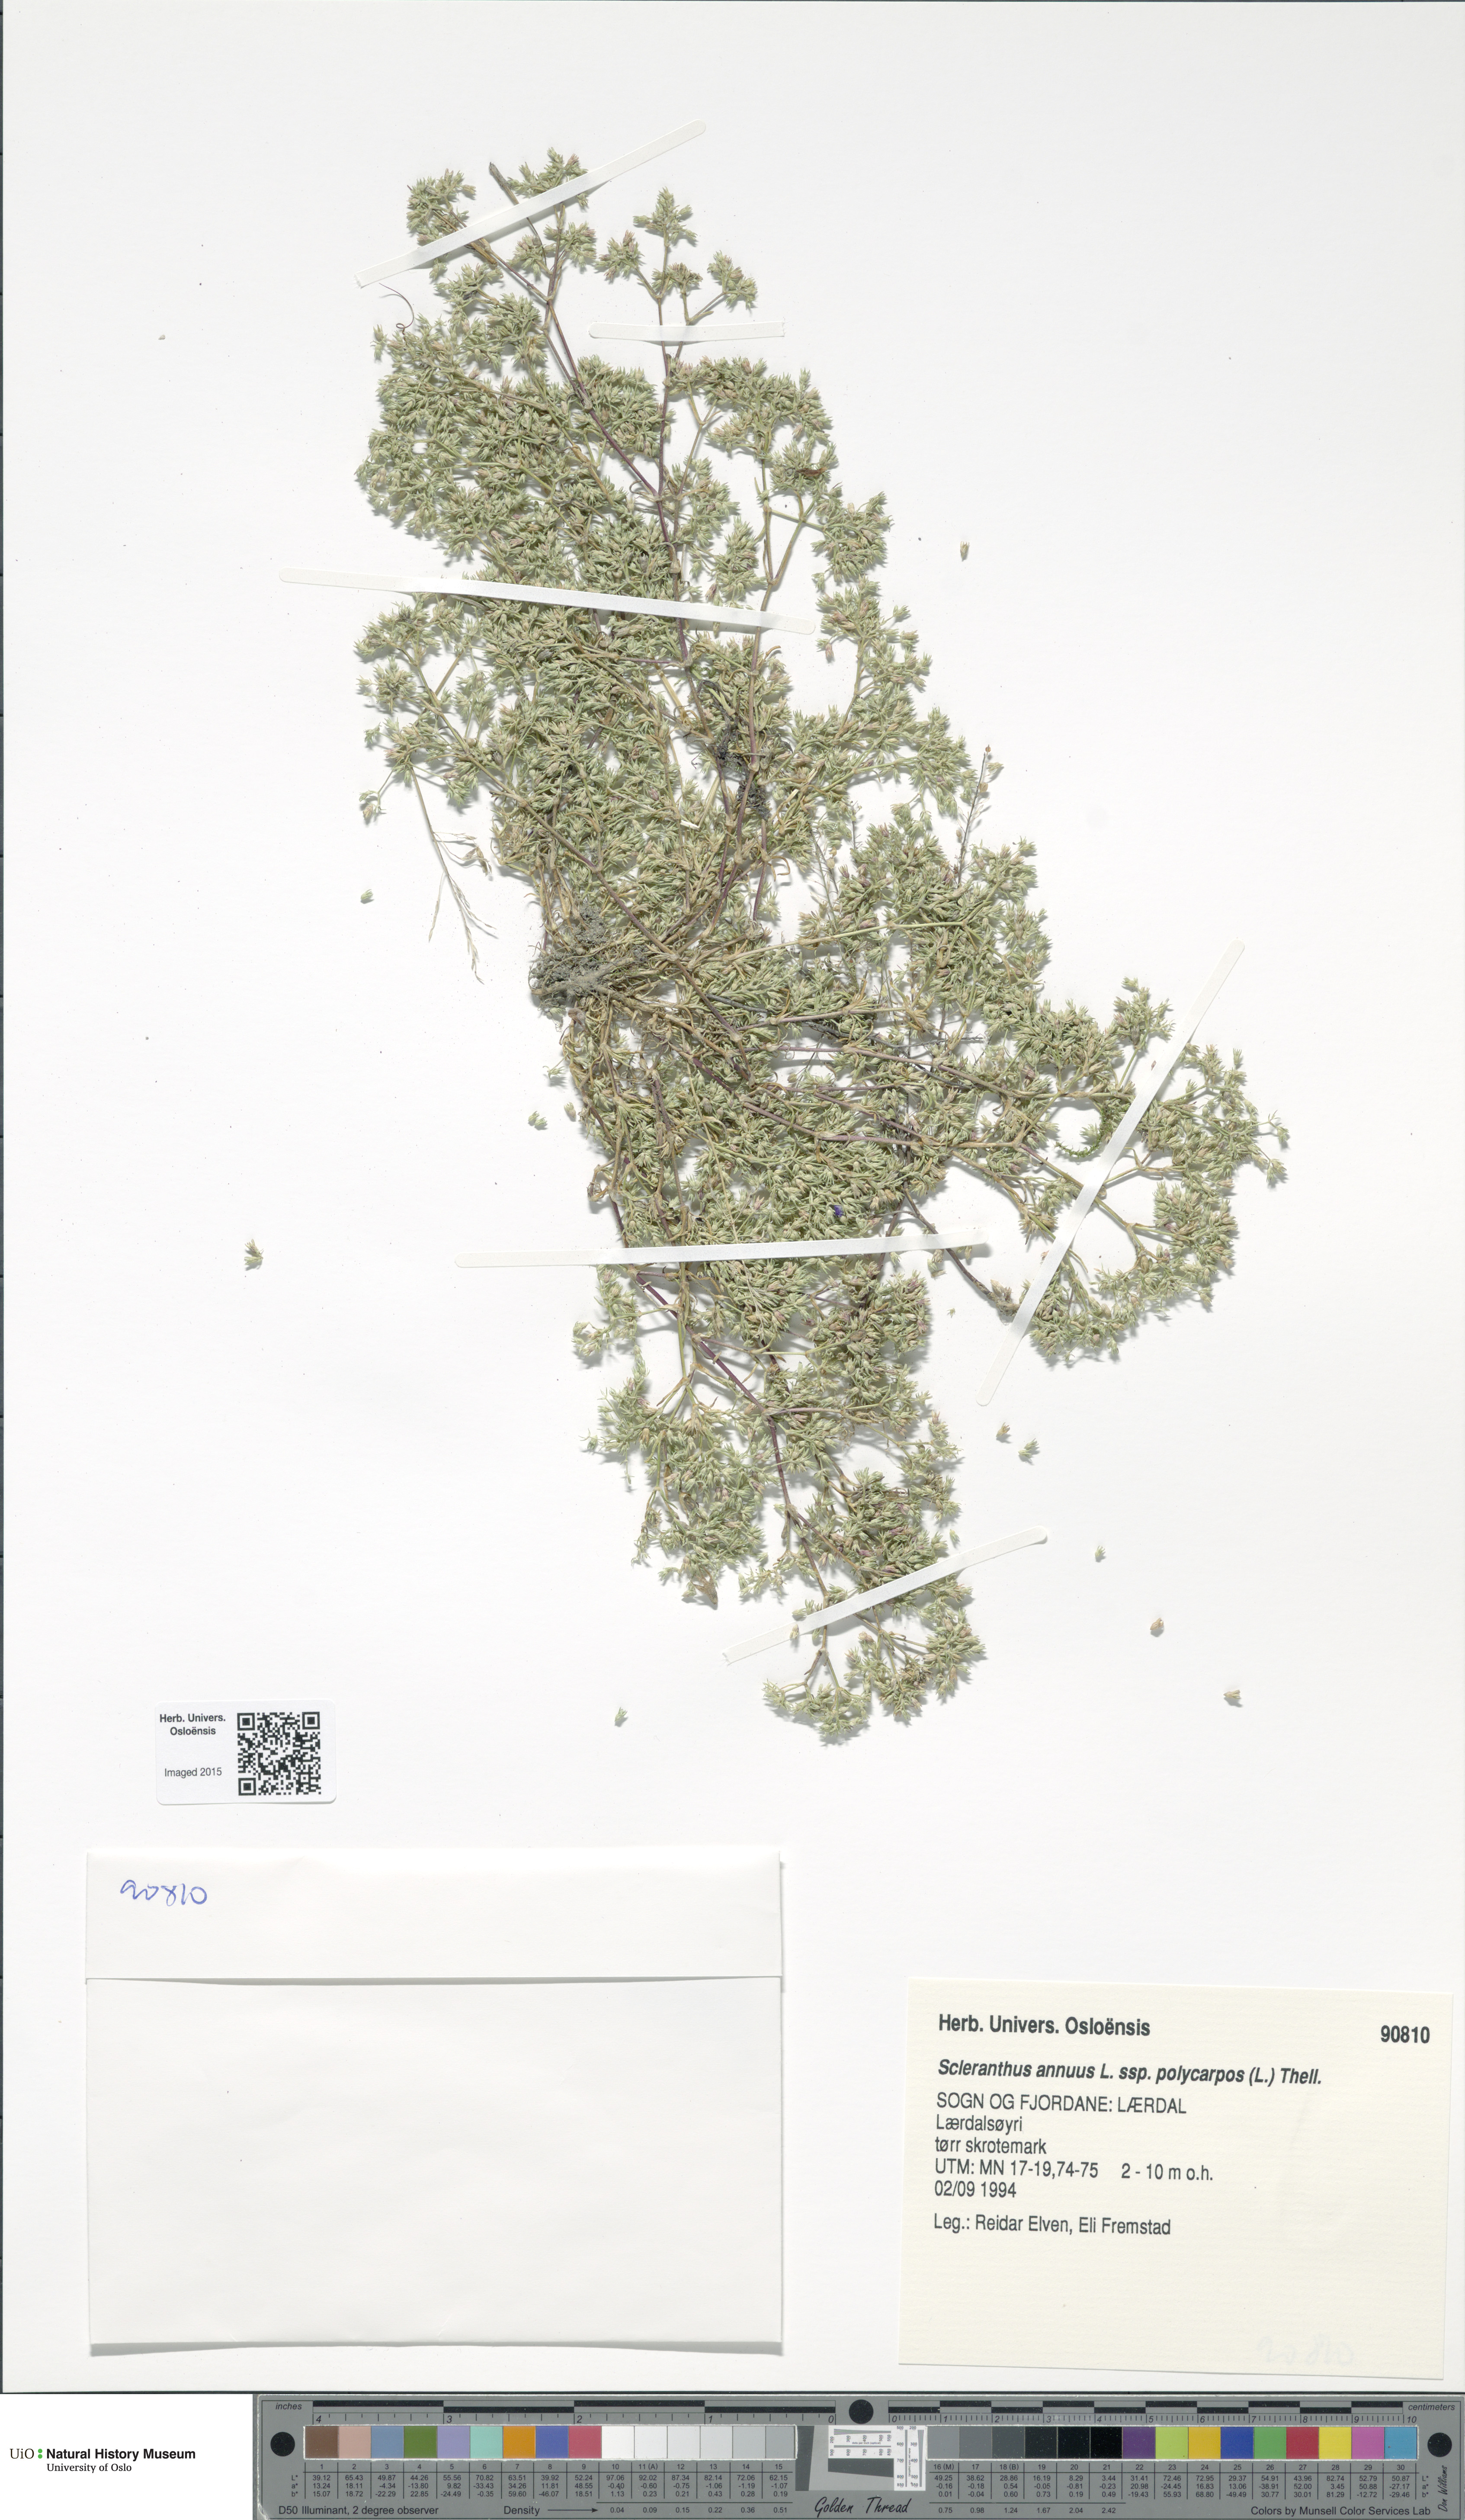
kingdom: Plantae
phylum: Tracheophyta
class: Magnoliopsida
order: Caryophyllales
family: Caryophyllaceae
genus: Scleranthus
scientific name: Scleranthus annuus
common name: Annual knawel
